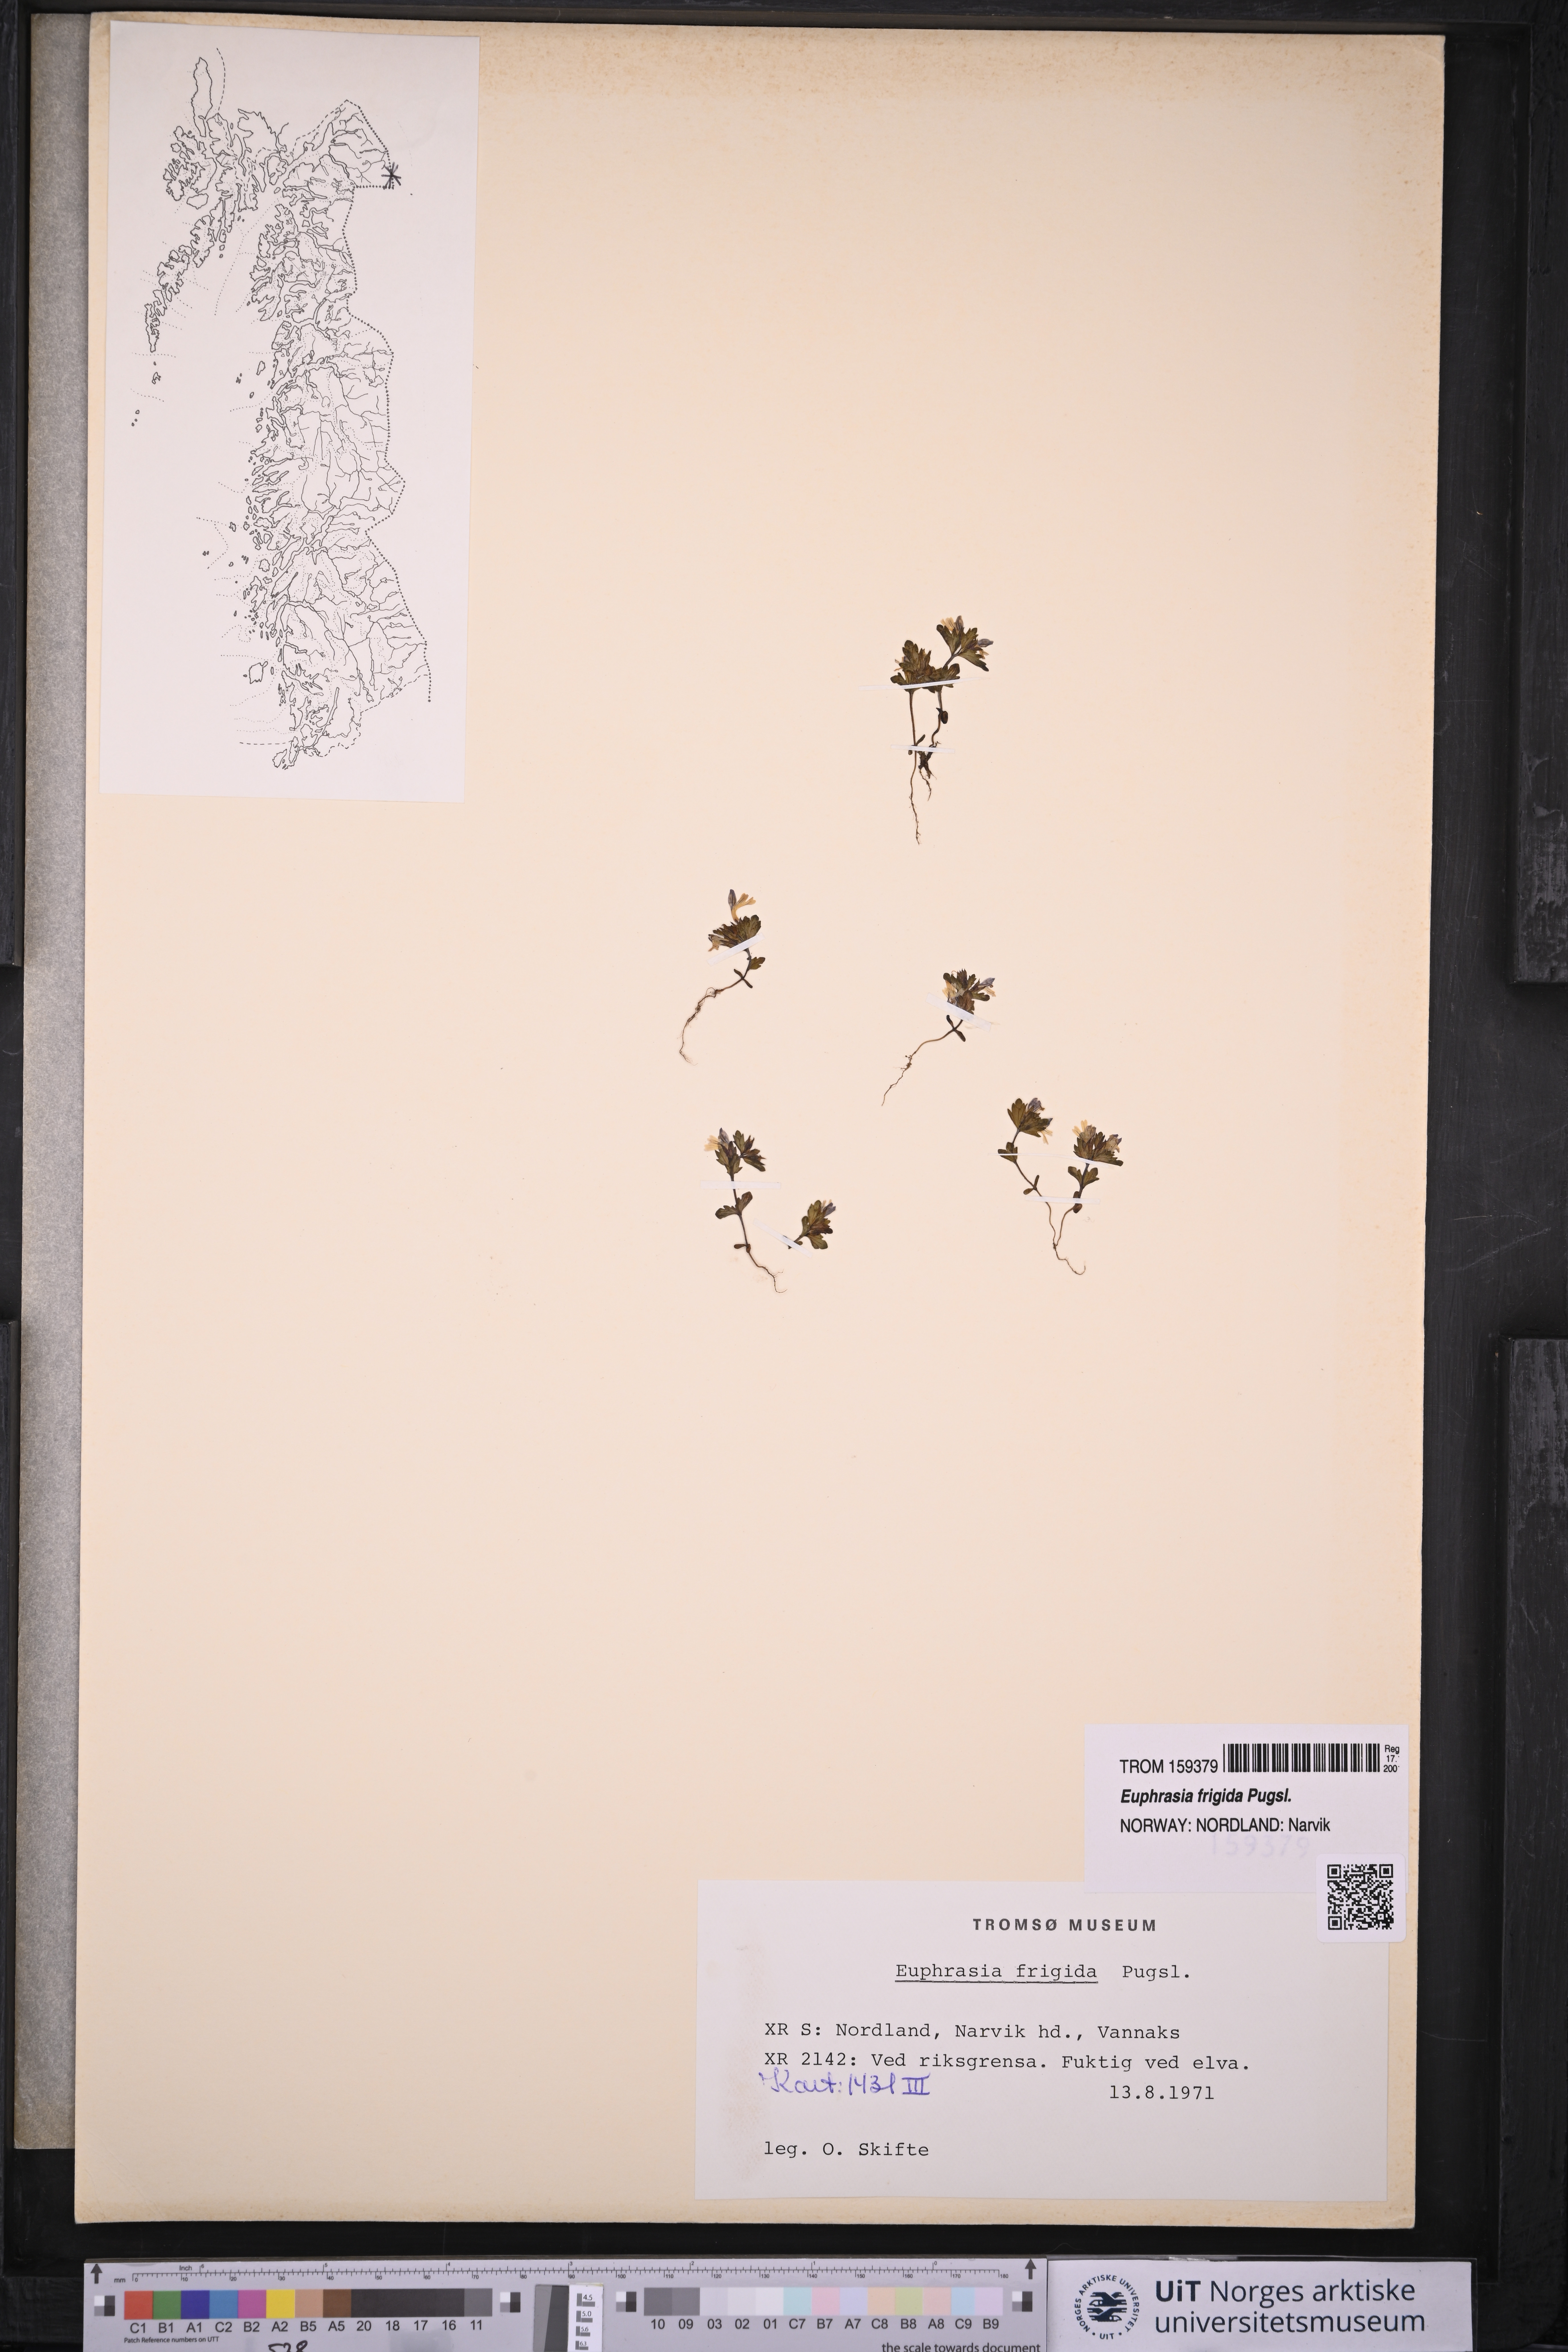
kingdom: Plantae
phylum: Tracheophyta
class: Magnoliopsida
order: Lamiales
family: Orobanchaceae
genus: Euphrasia
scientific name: Euphrasia frigida
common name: An eyebright
